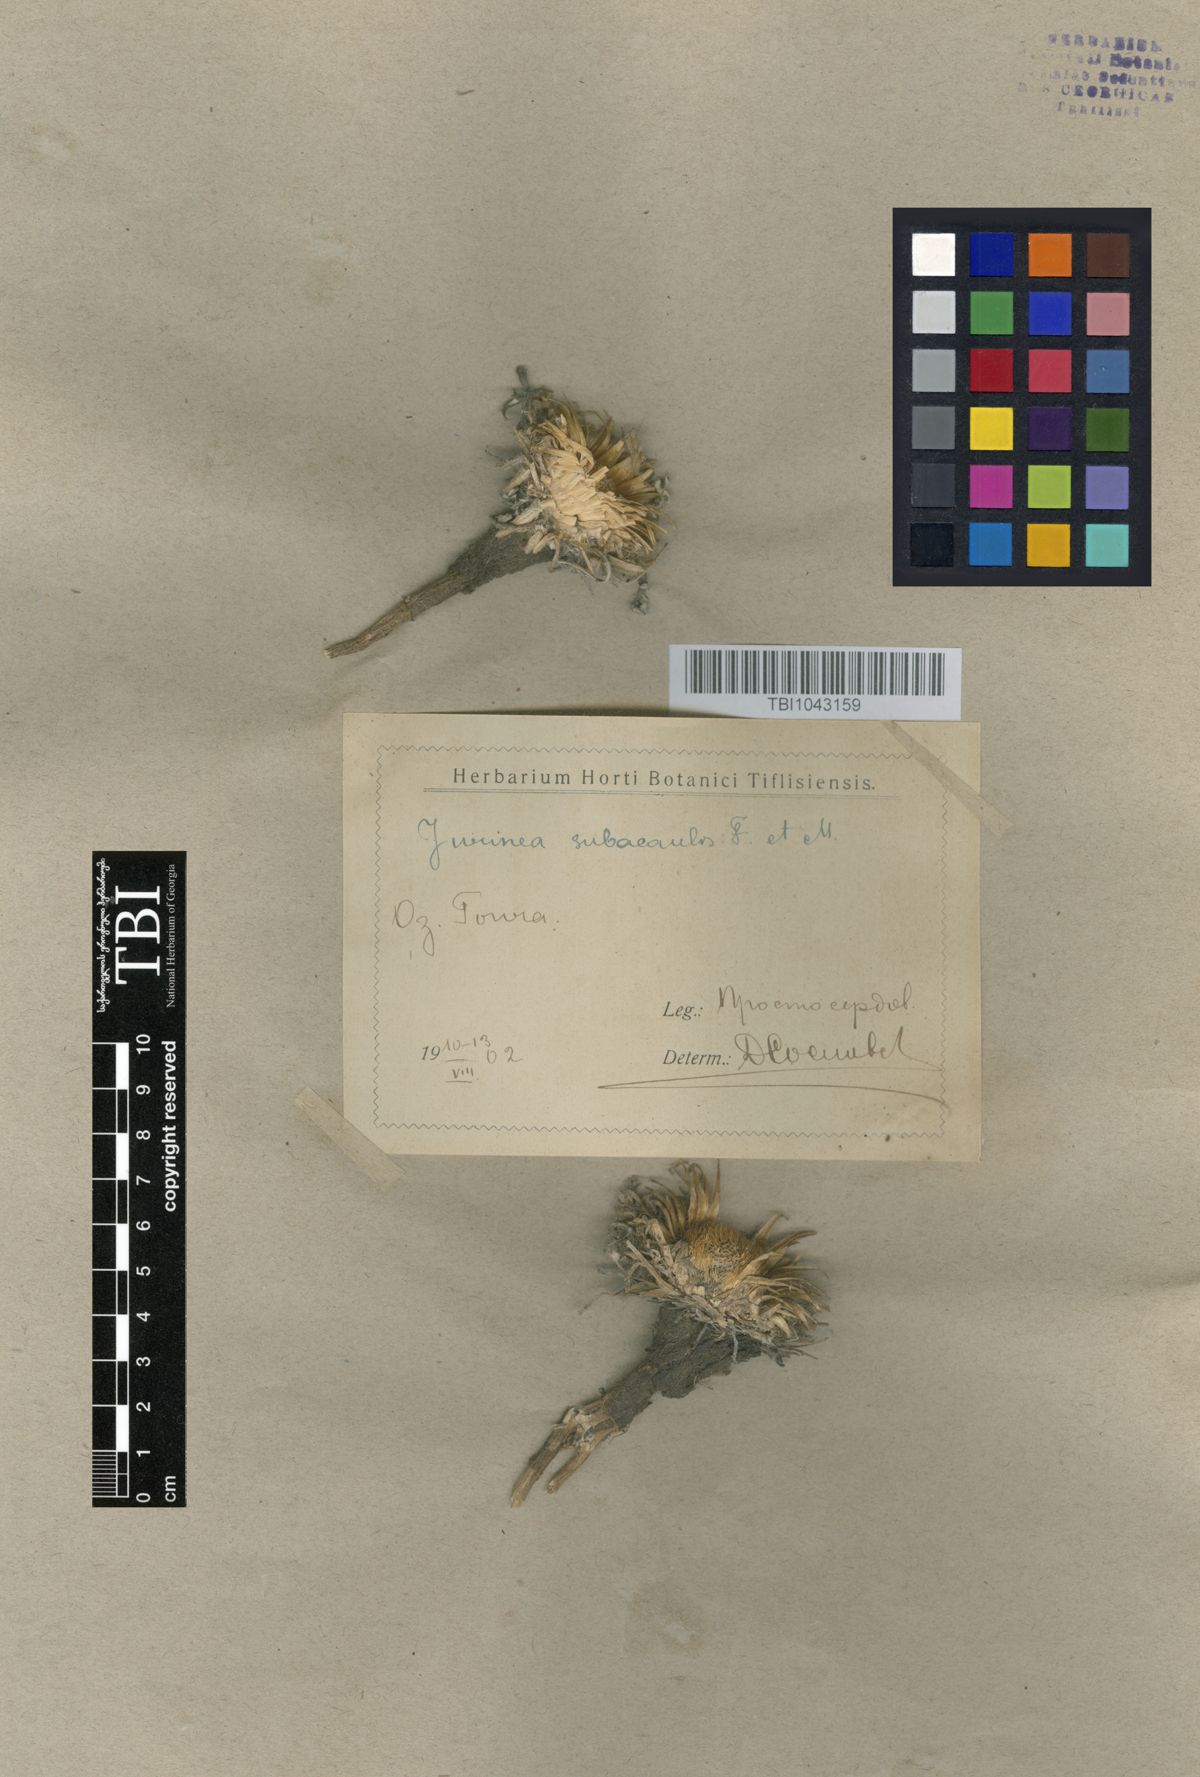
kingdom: Plantae
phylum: Tracheophyta
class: Magnoliopsida
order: Asterales
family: Asteraceae
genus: Jurinea
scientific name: Jurinea moschus
